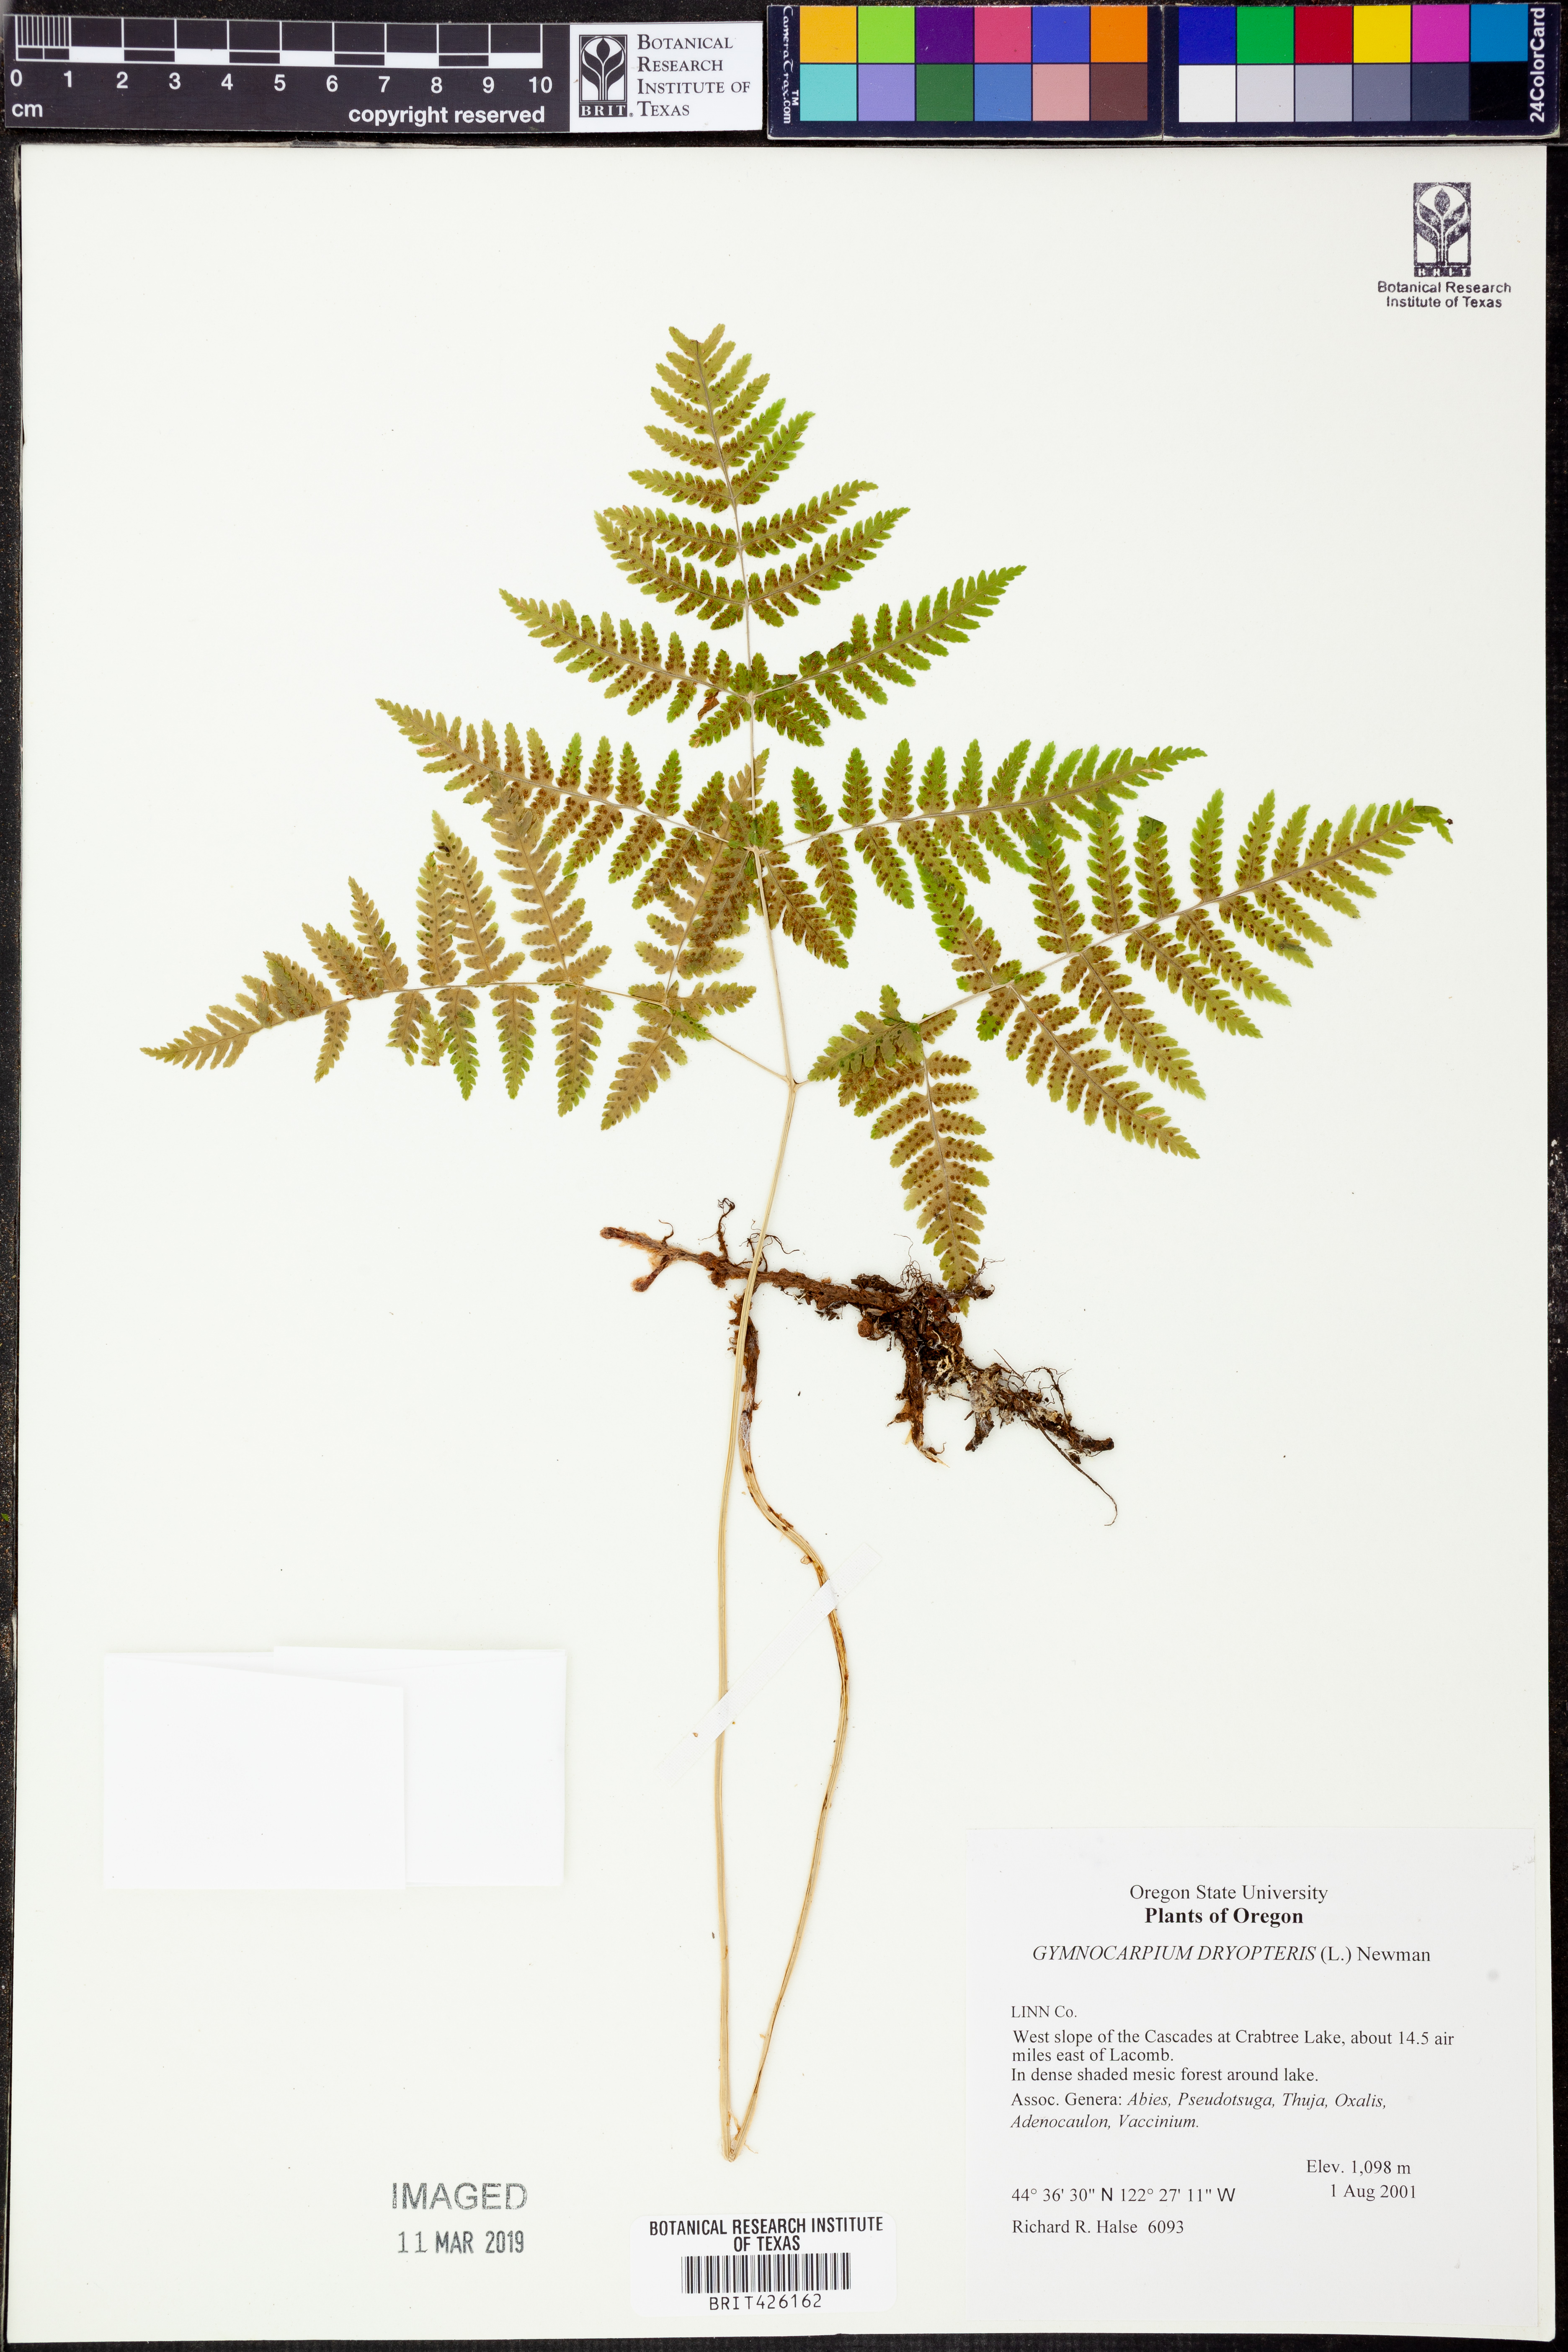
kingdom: Plantae
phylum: Tracheophyta
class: Polypodiopsida
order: Polypodiales
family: Cystopteridaceae
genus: Gymnocarpium
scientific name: Gymnocarpium dryopteris
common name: Oak fern
